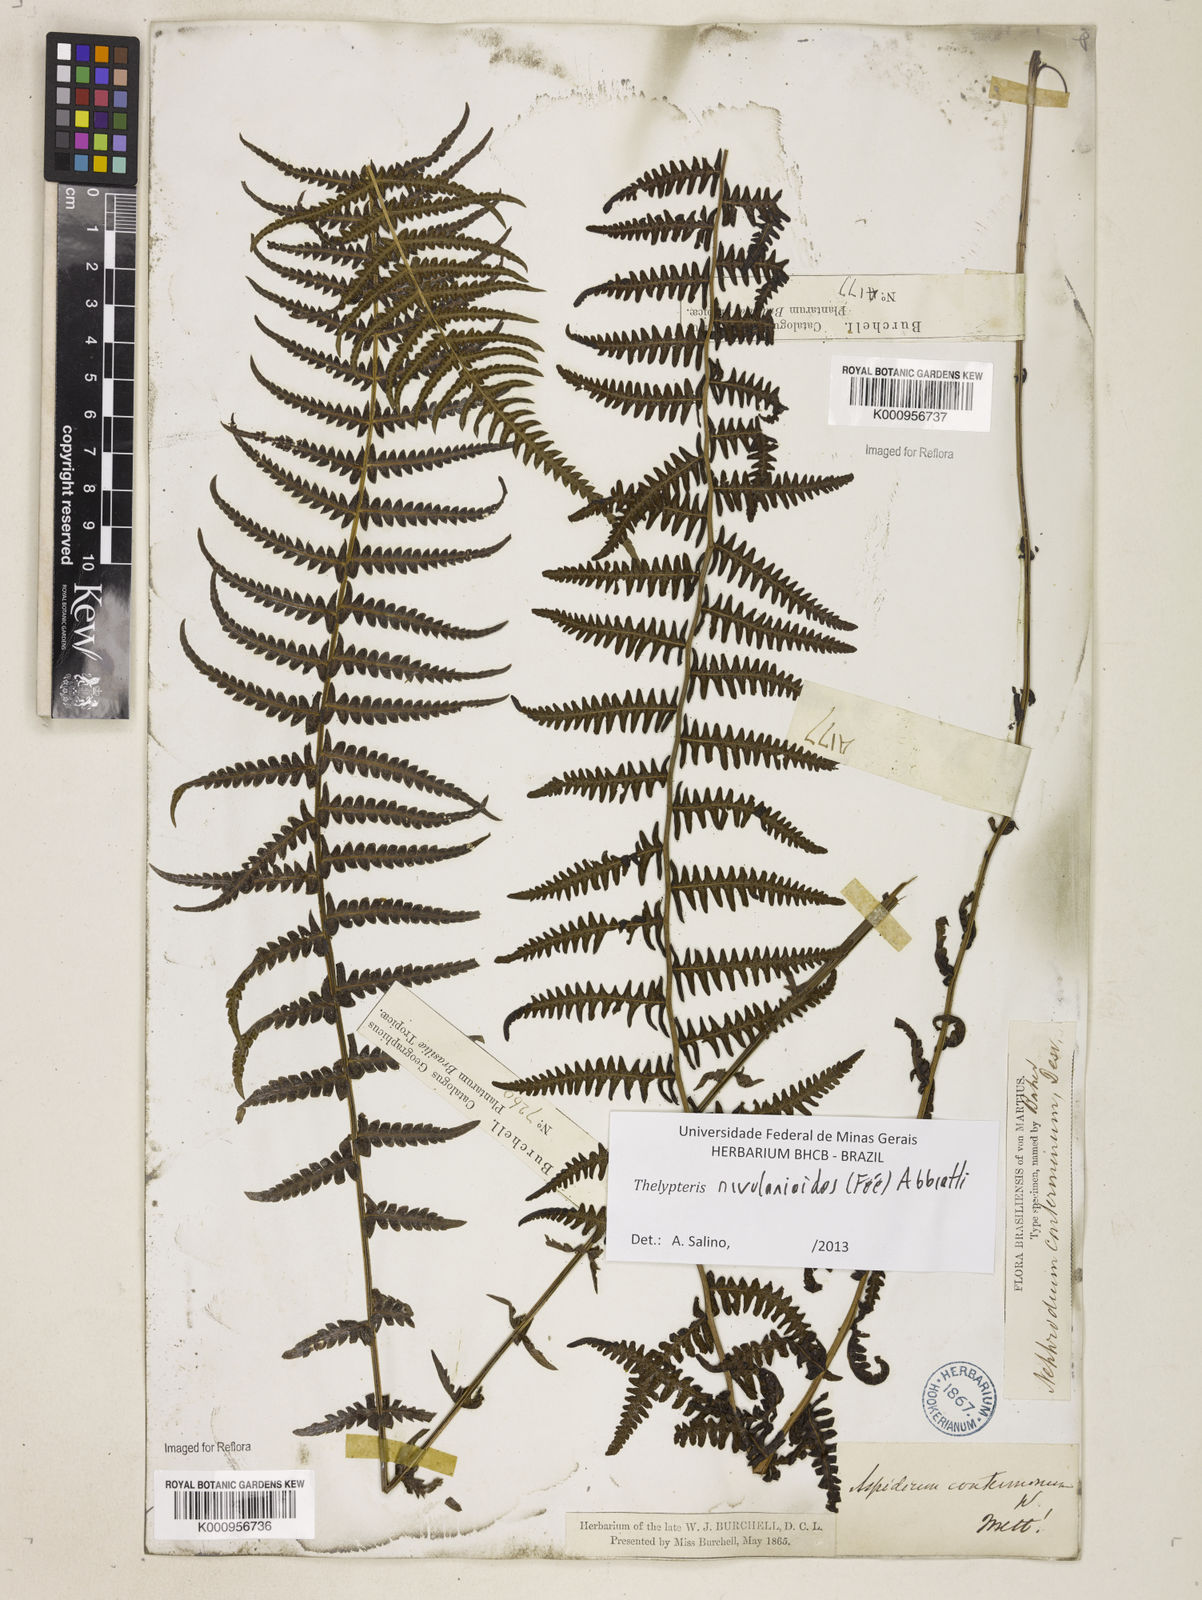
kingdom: Plantae
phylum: Tracheophyta
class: Polypodiopsida
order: Polypodiales
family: Thelypteridaceae
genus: Amauropelta
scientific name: Amauropelta rivularioides
